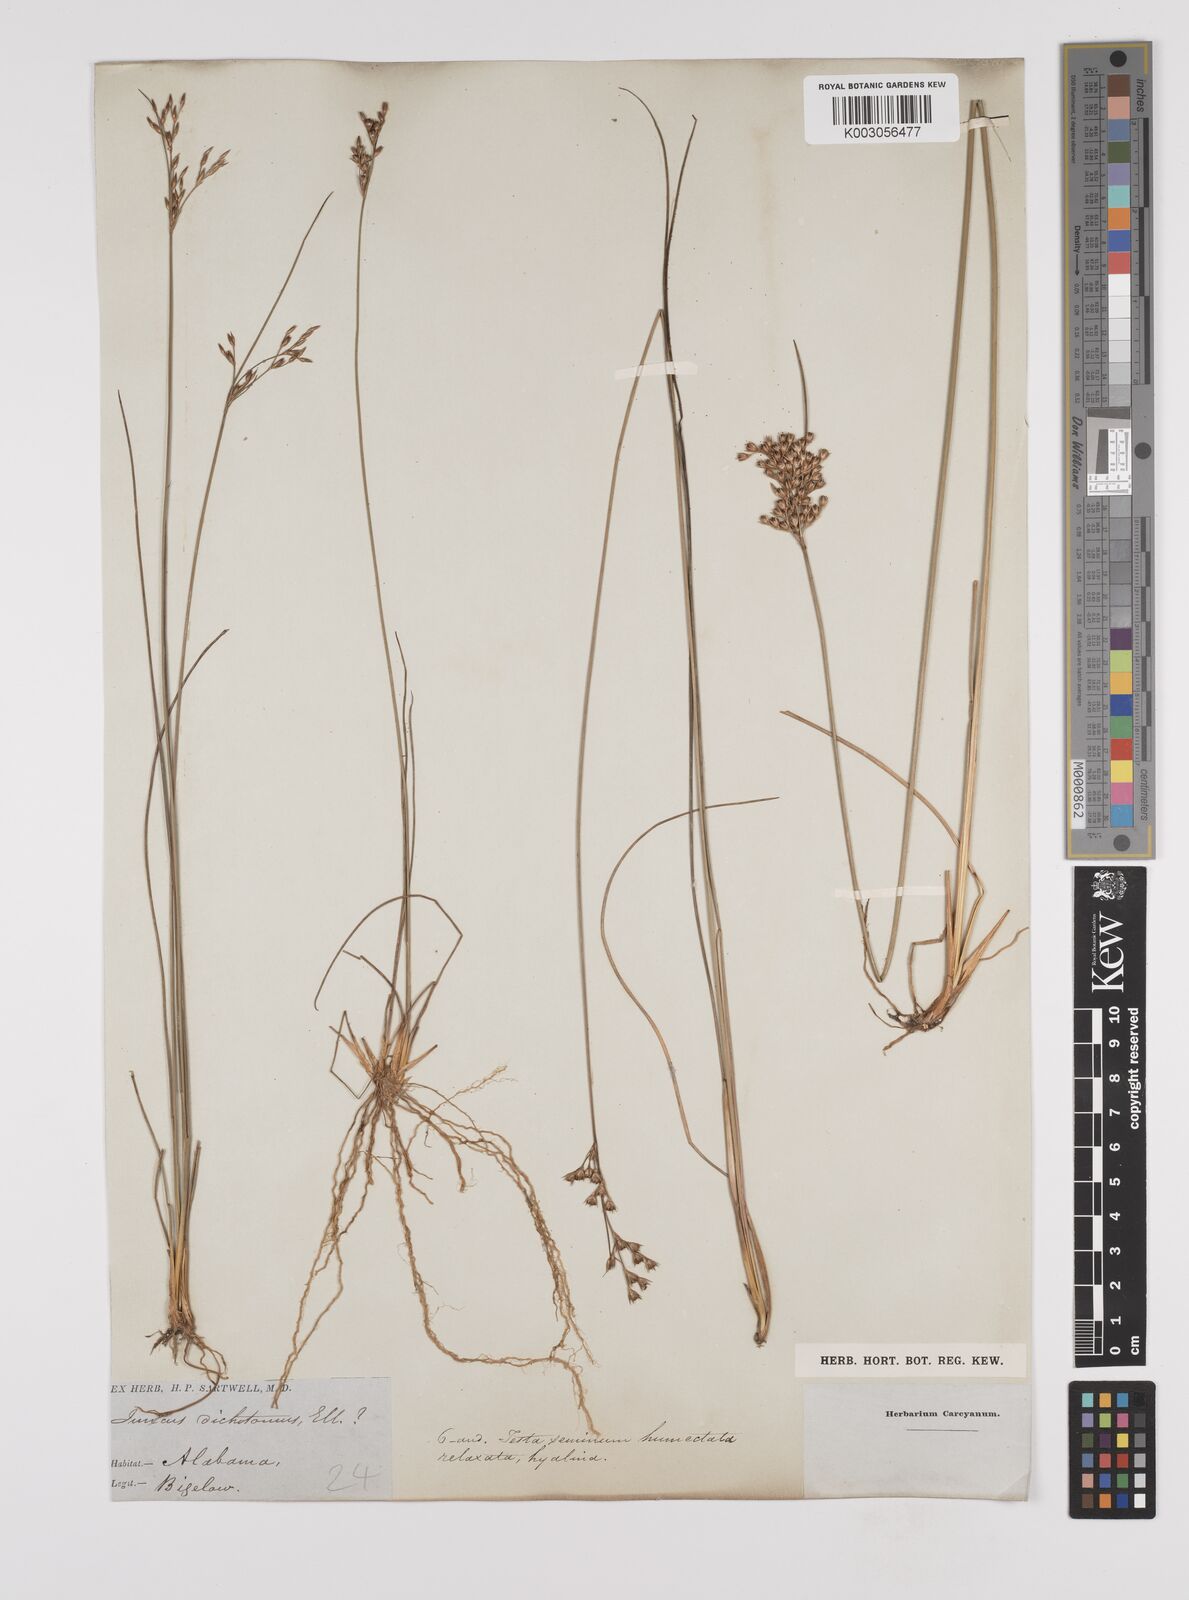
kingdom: Plantae
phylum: Tracheophyta
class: Liliopsida
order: Poales
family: Juncaceae
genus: Juncus
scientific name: Juncus dichotomus
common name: Forked rush
